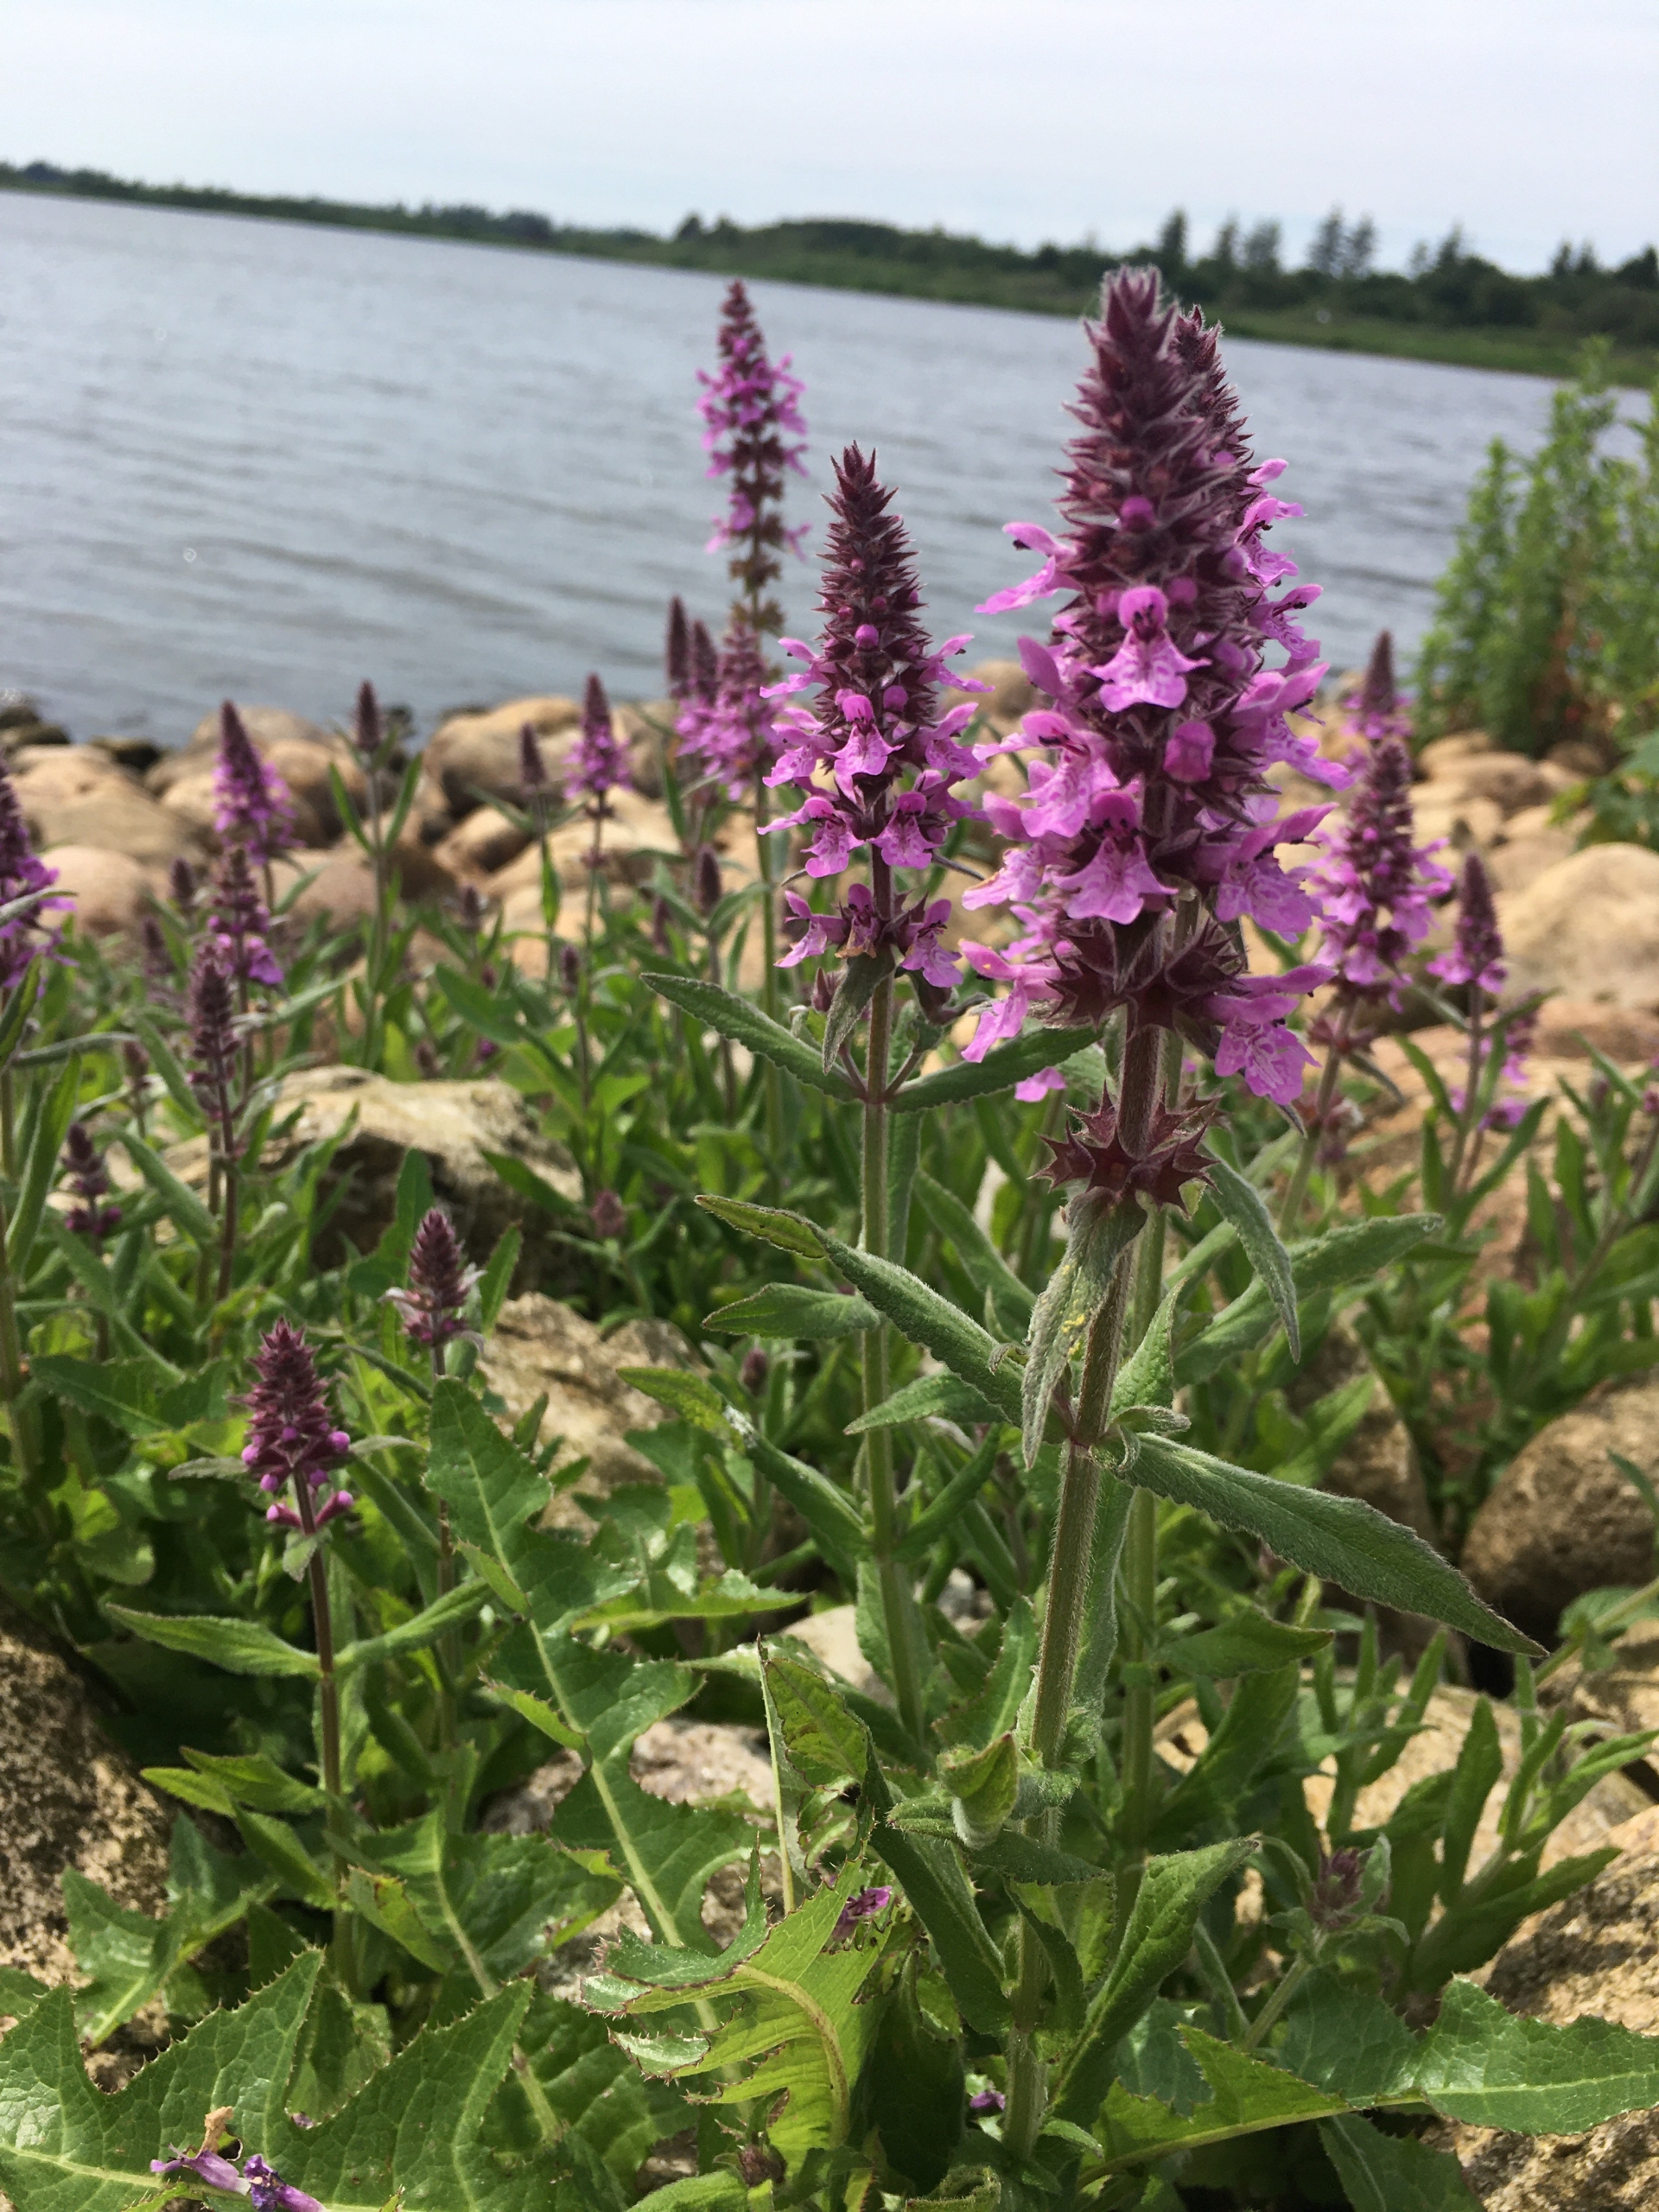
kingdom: Plantae
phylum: Tracheophyta
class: Magnoliopsida
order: Lamiales
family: Lamiaceae
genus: Stachys
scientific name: Stachys palustris
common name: Kær-galtetand
